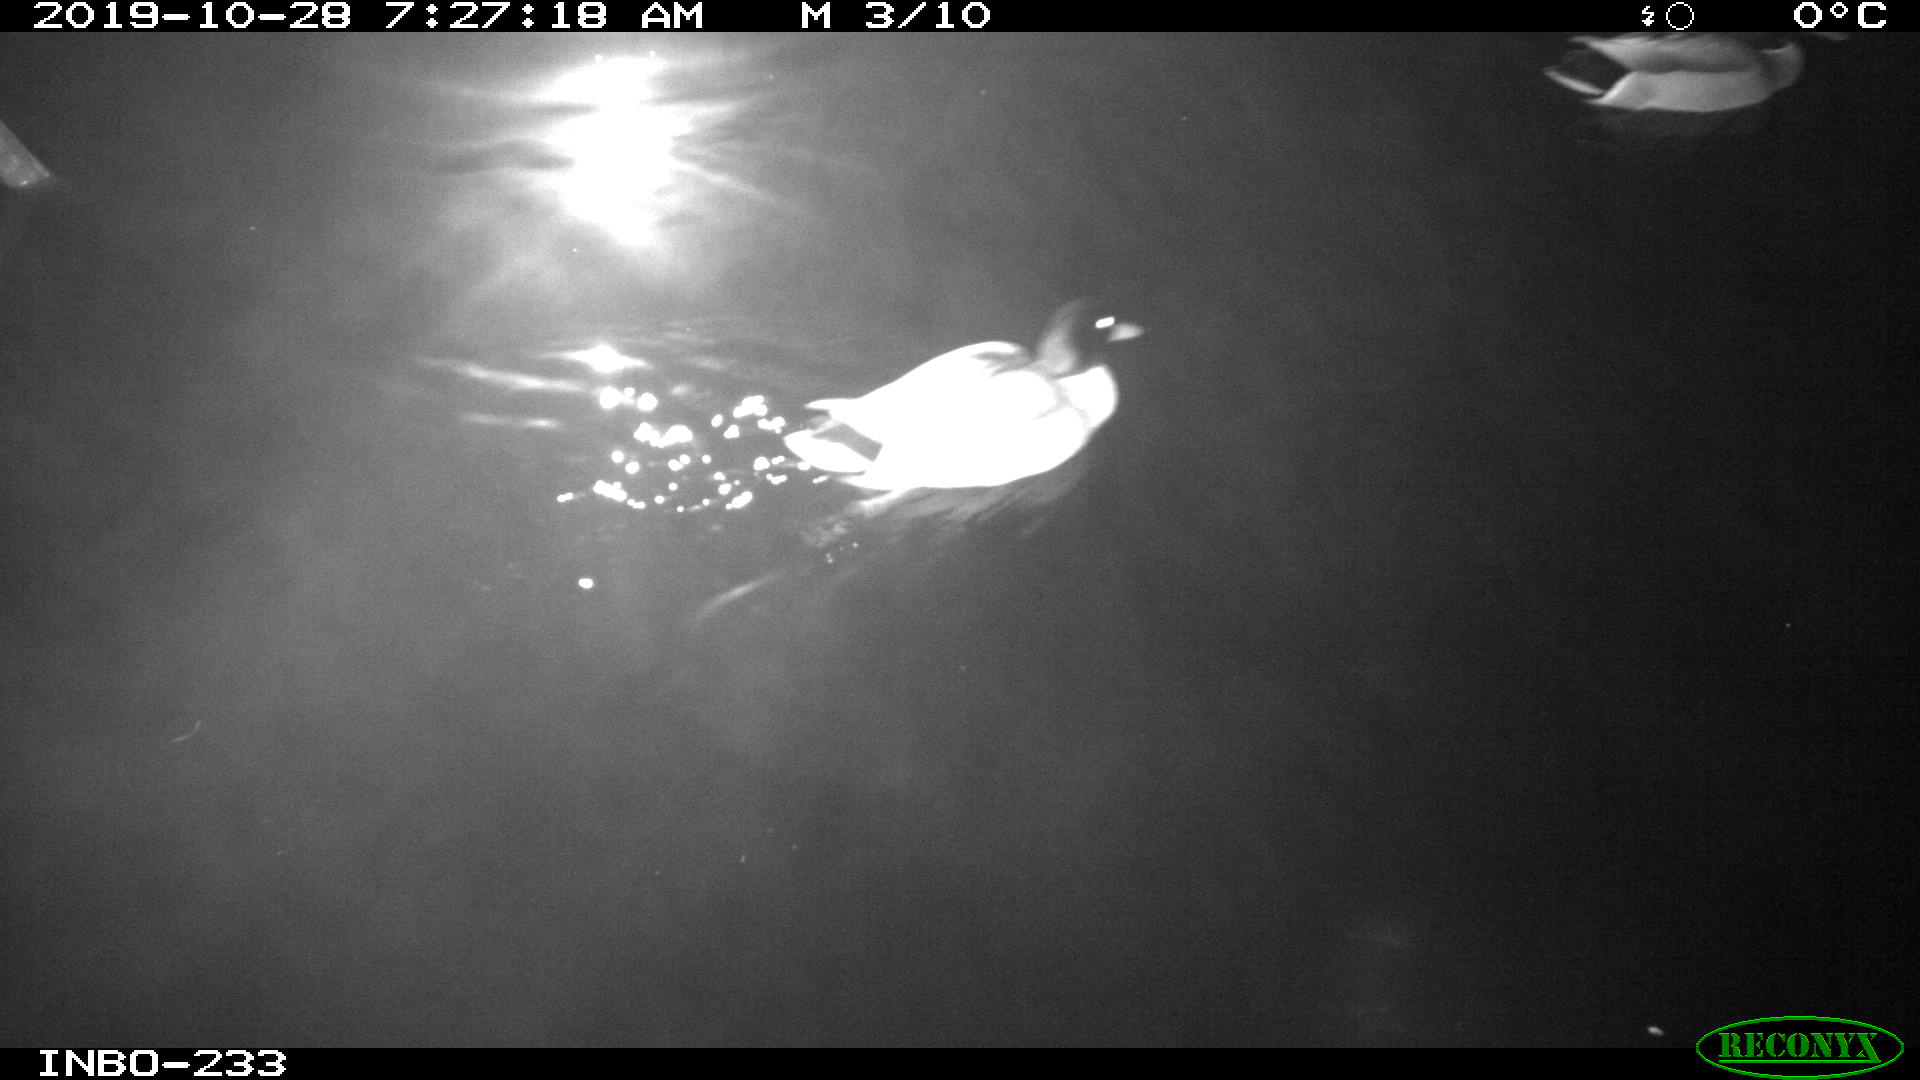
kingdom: Animalia
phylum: Chordata
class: Aves
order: Anseriformes
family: Anatidae
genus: Anas
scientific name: Anas platyrhynchos
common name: Mallard
